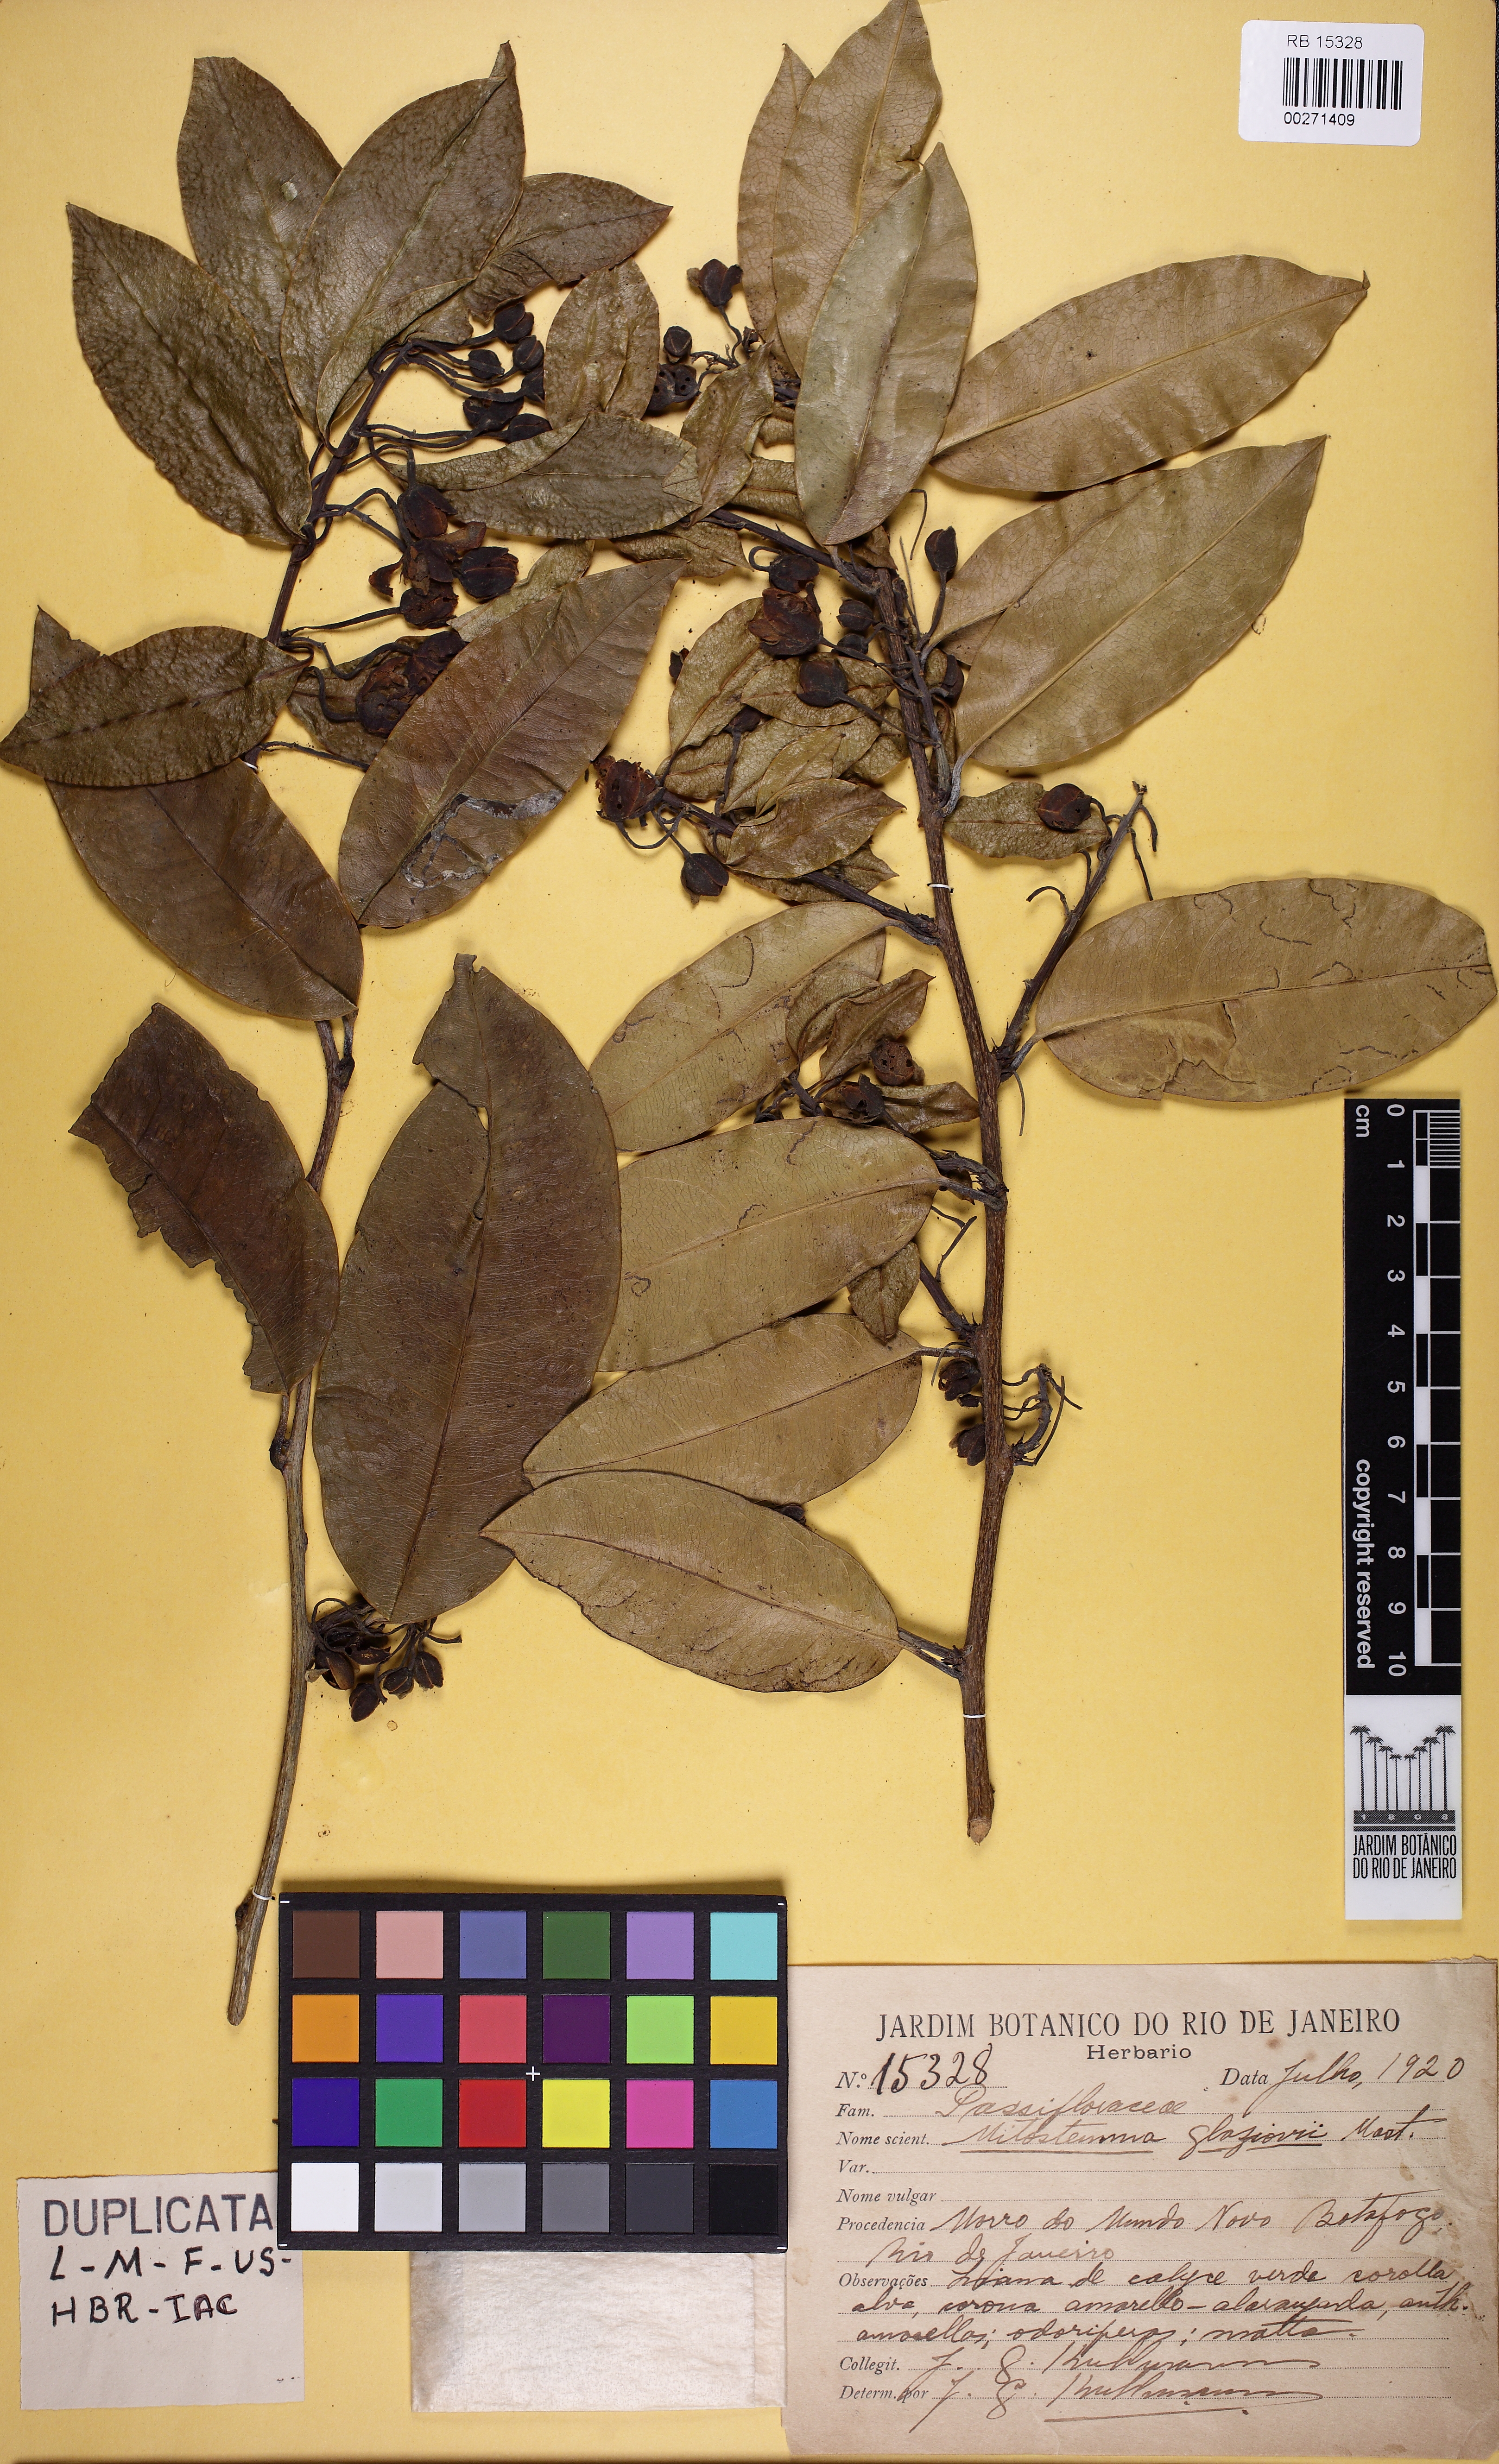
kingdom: Plantae
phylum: Tracheophyta
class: Magnoliopsida
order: Malpighiales
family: Passifloraceae
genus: Mitostemma
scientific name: Mitostemma glaziovii
